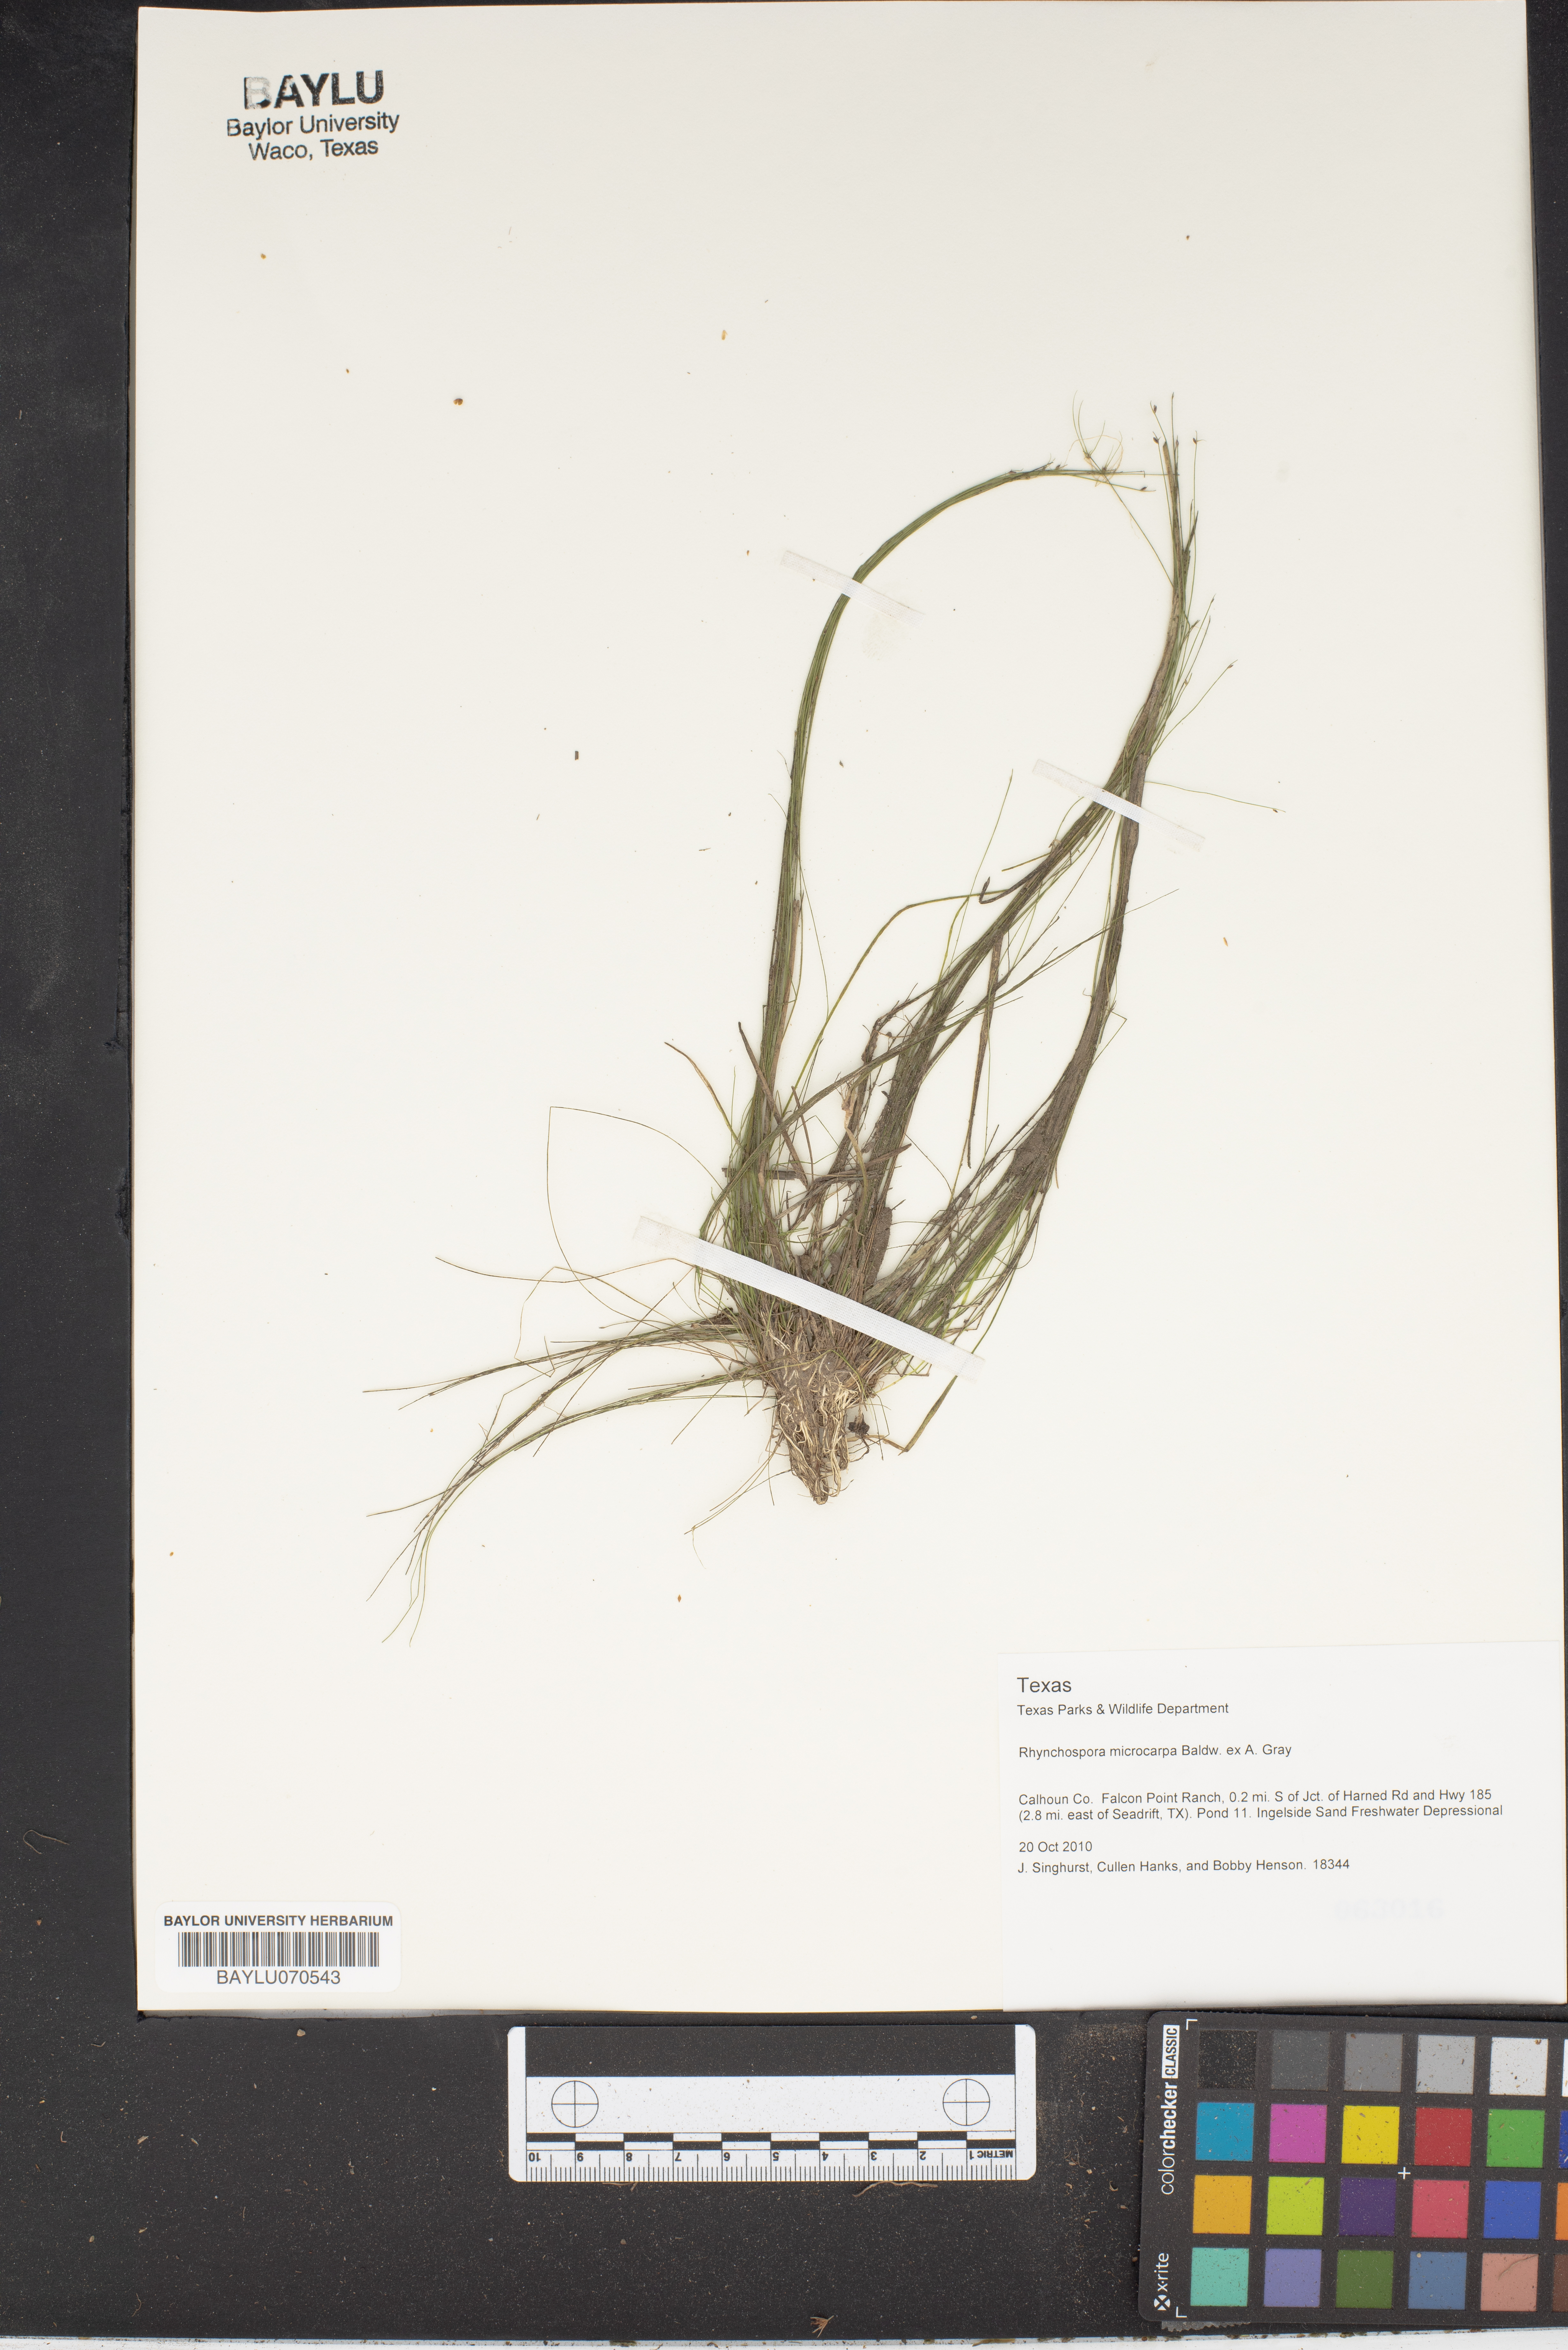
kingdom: Plantae
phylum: Tracheophyta
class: Liliopsida
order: Poales
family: Cyperaceae
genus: Rhynchospora
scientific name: Rhynchospora microcarpa
